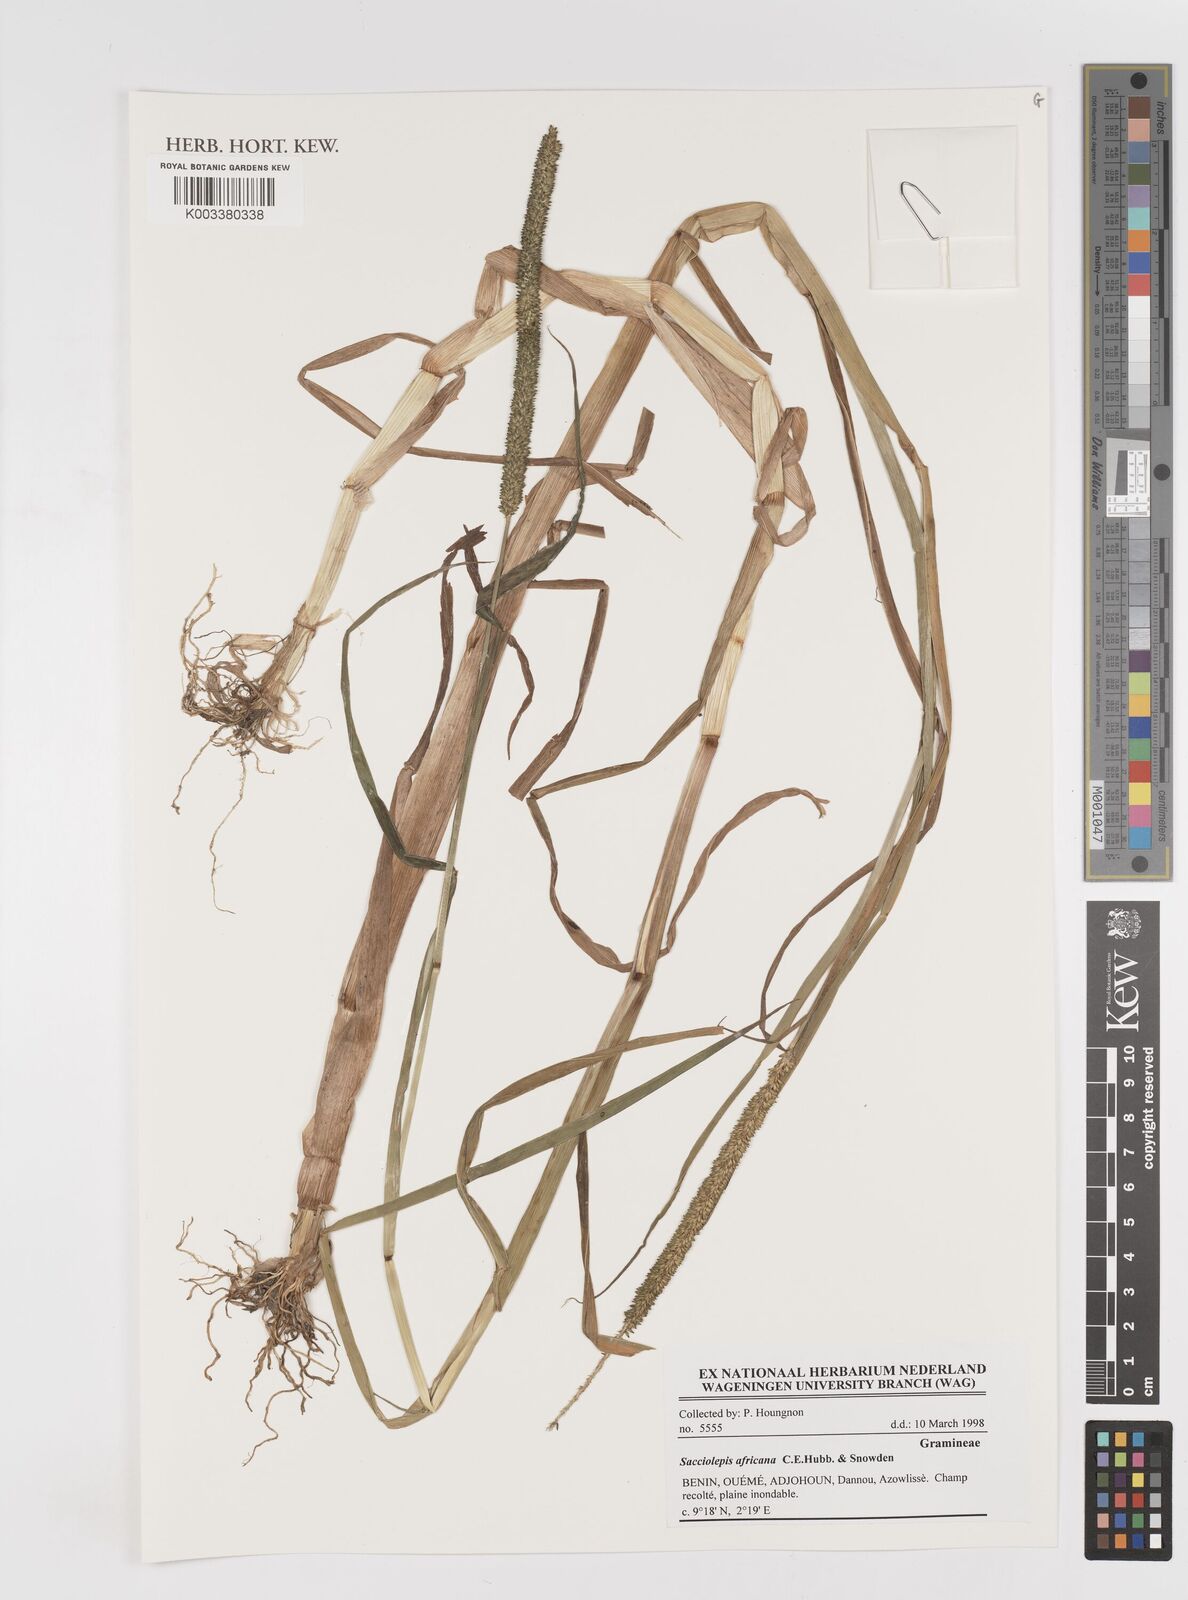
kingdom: Plantae
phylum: Tracheophyta
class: Liliopsida
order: Poales
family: Poaceae
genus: Sacciolepis
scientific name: Sacciolepis africana
